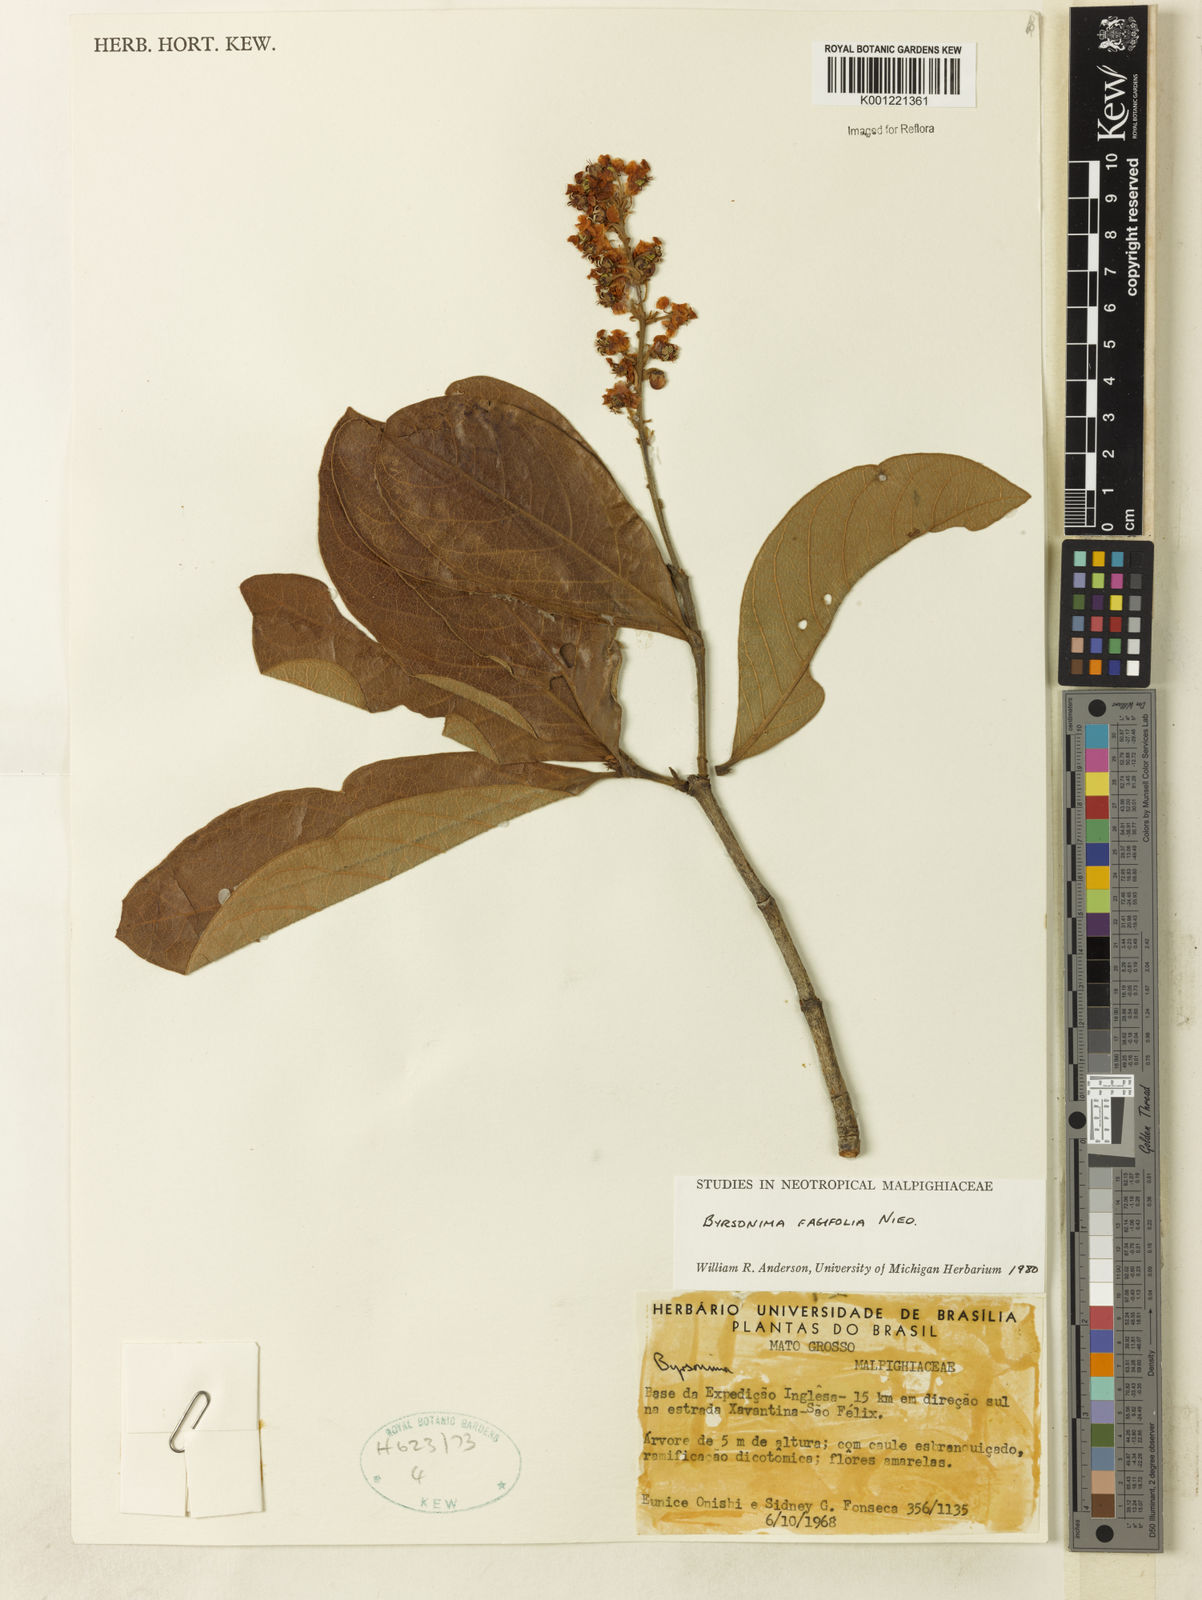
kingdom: Plantae
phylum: Tracheophyta
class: Magnoliopsida
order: Malpighiales
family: Malpighiaceae
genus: Byrsonima
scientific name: Byrsonima crassifolia
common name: Golden spoon
